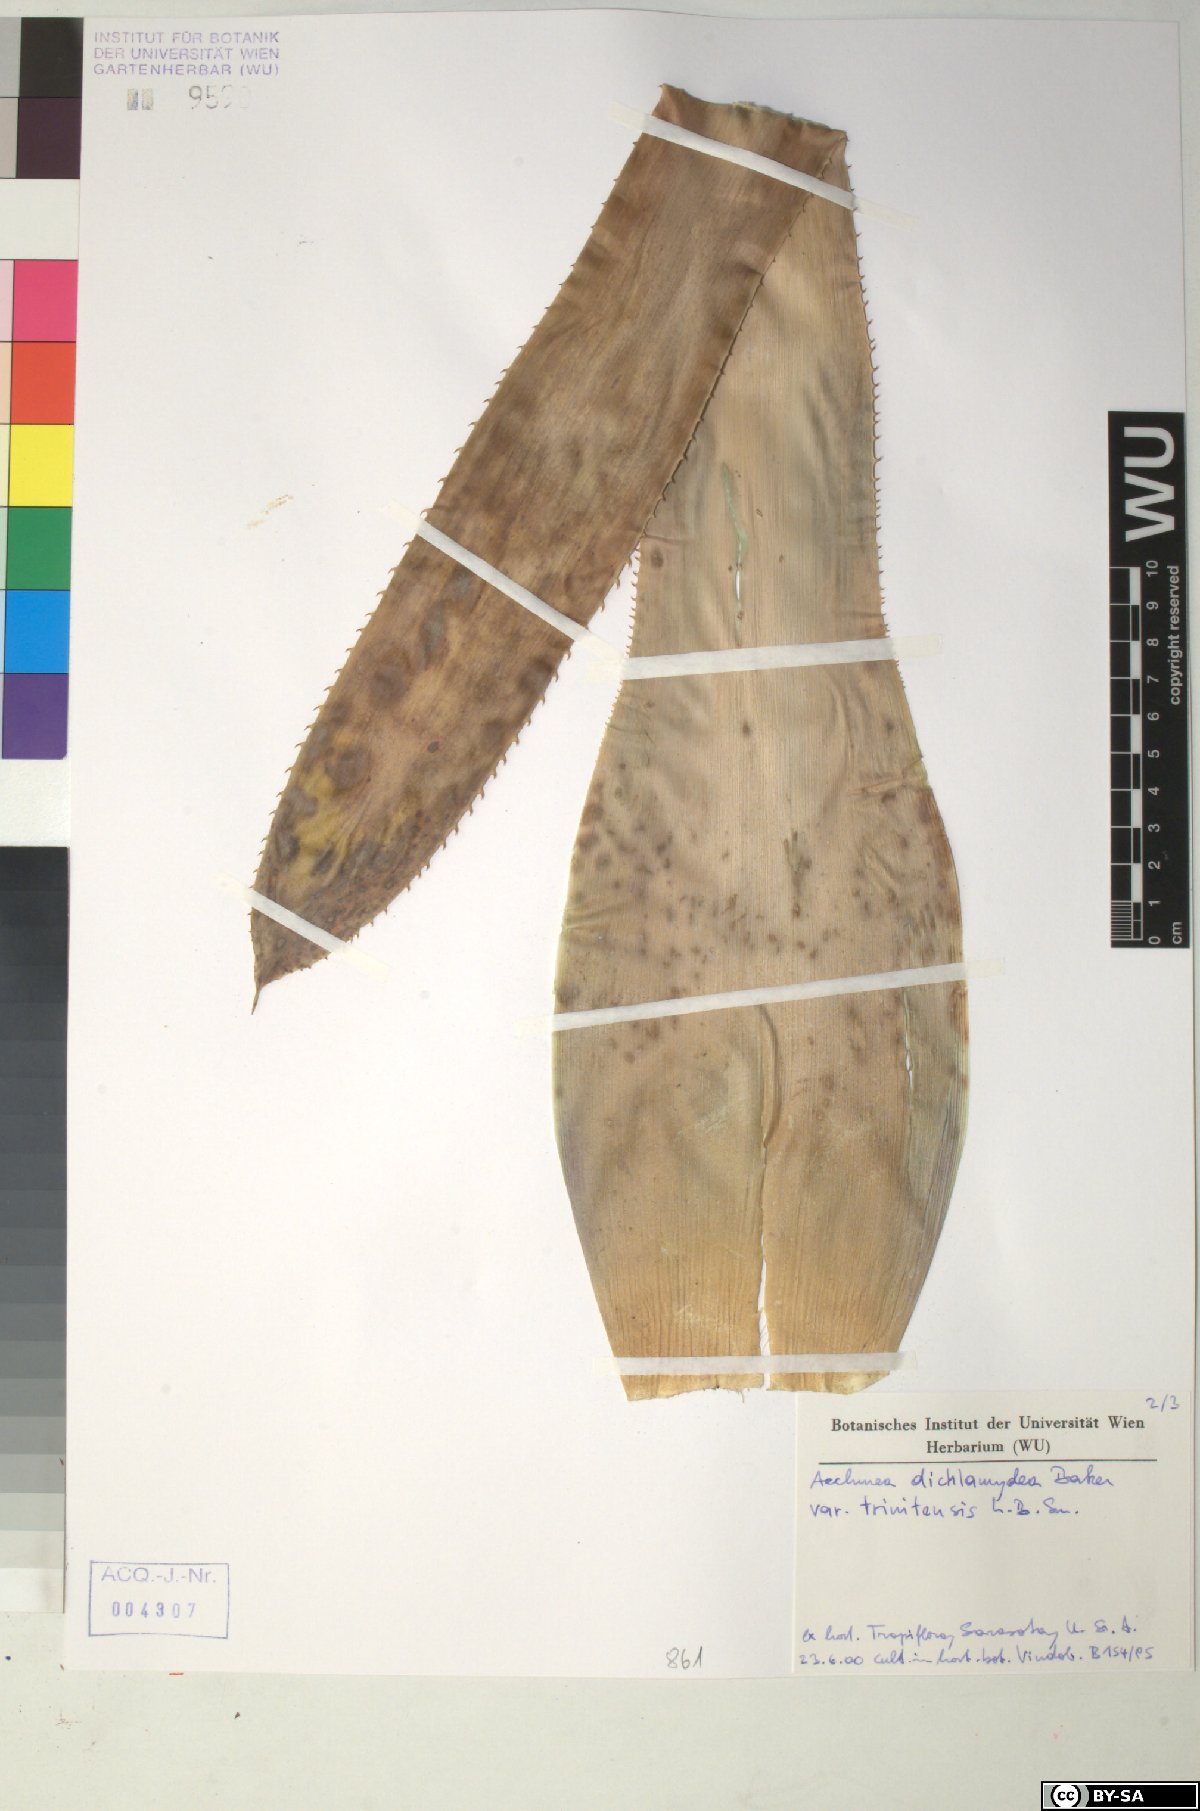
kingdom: Plantae
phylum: Tracheophyta
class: Liliopsida
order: Poales
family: Bromeliaceae
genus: Aechmea
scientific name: Aechmea
